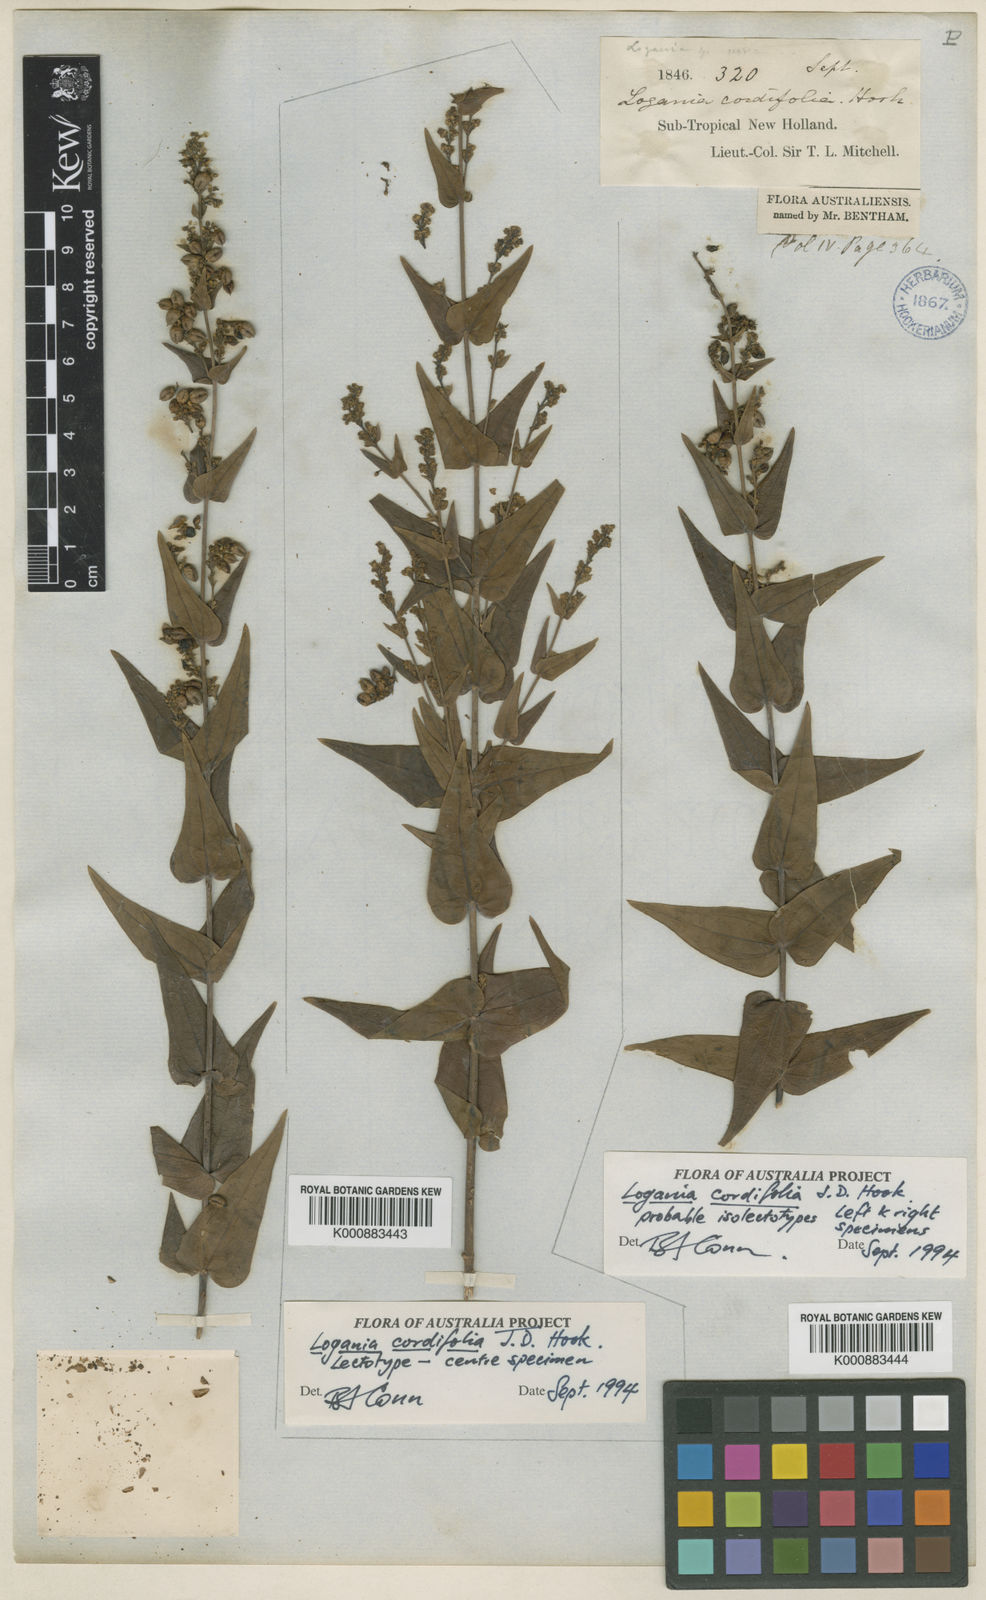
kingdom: Plantae
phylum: Tracheophyta
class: Magnoliopsida
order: Gentianales
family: Loganiaceae
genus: Logania
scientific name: Logania cordifolia
